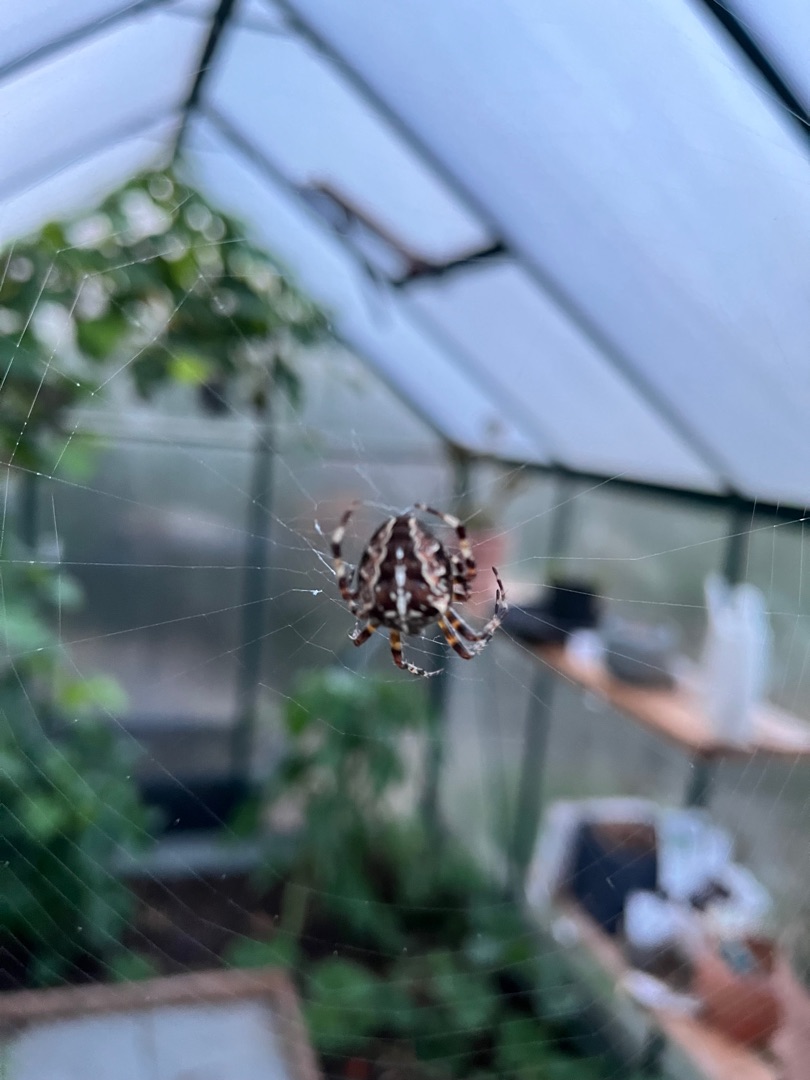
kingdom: Animalia
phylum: Arthropoda
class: Arachnida
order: Araneae
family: Araneidae
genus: Araneus
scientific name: Araneus diadematus
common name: Korsedderkop
